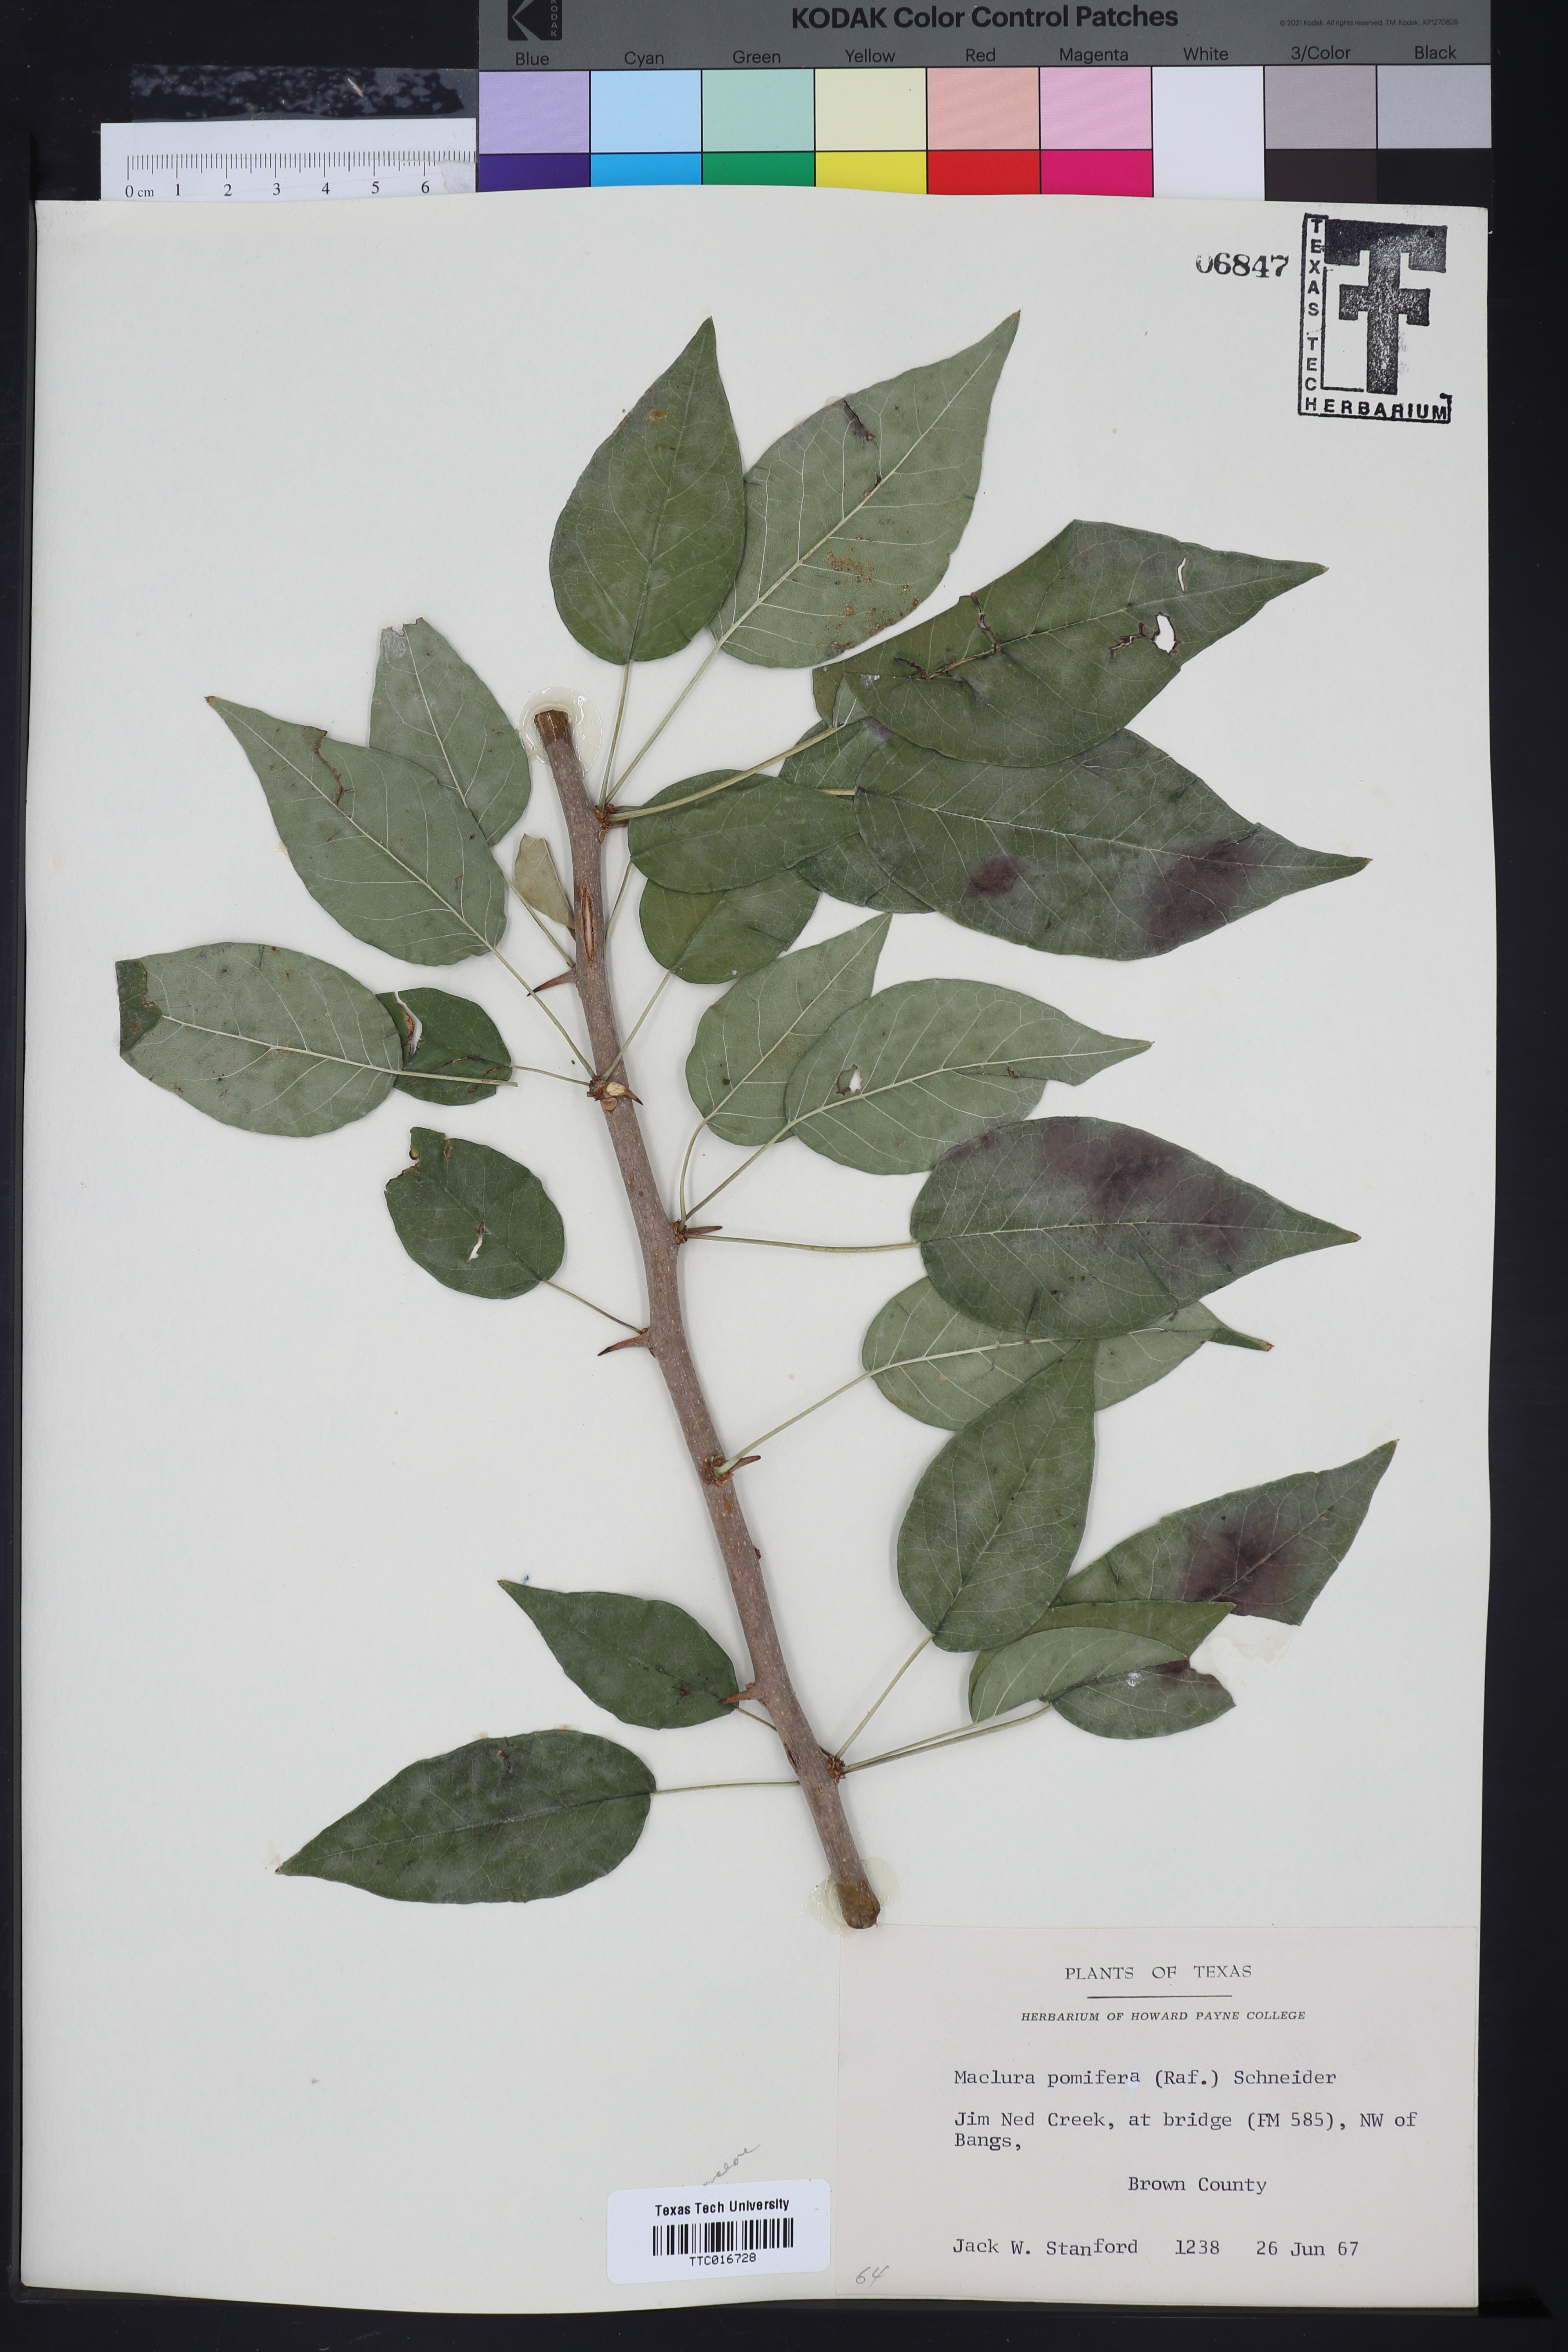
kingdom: Plantae
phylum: Tracheophyta
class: Magnoliopsida
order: Rosales
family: Moraceae
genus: Maclura
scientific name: Maclura pomifera
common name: Osage-orange
